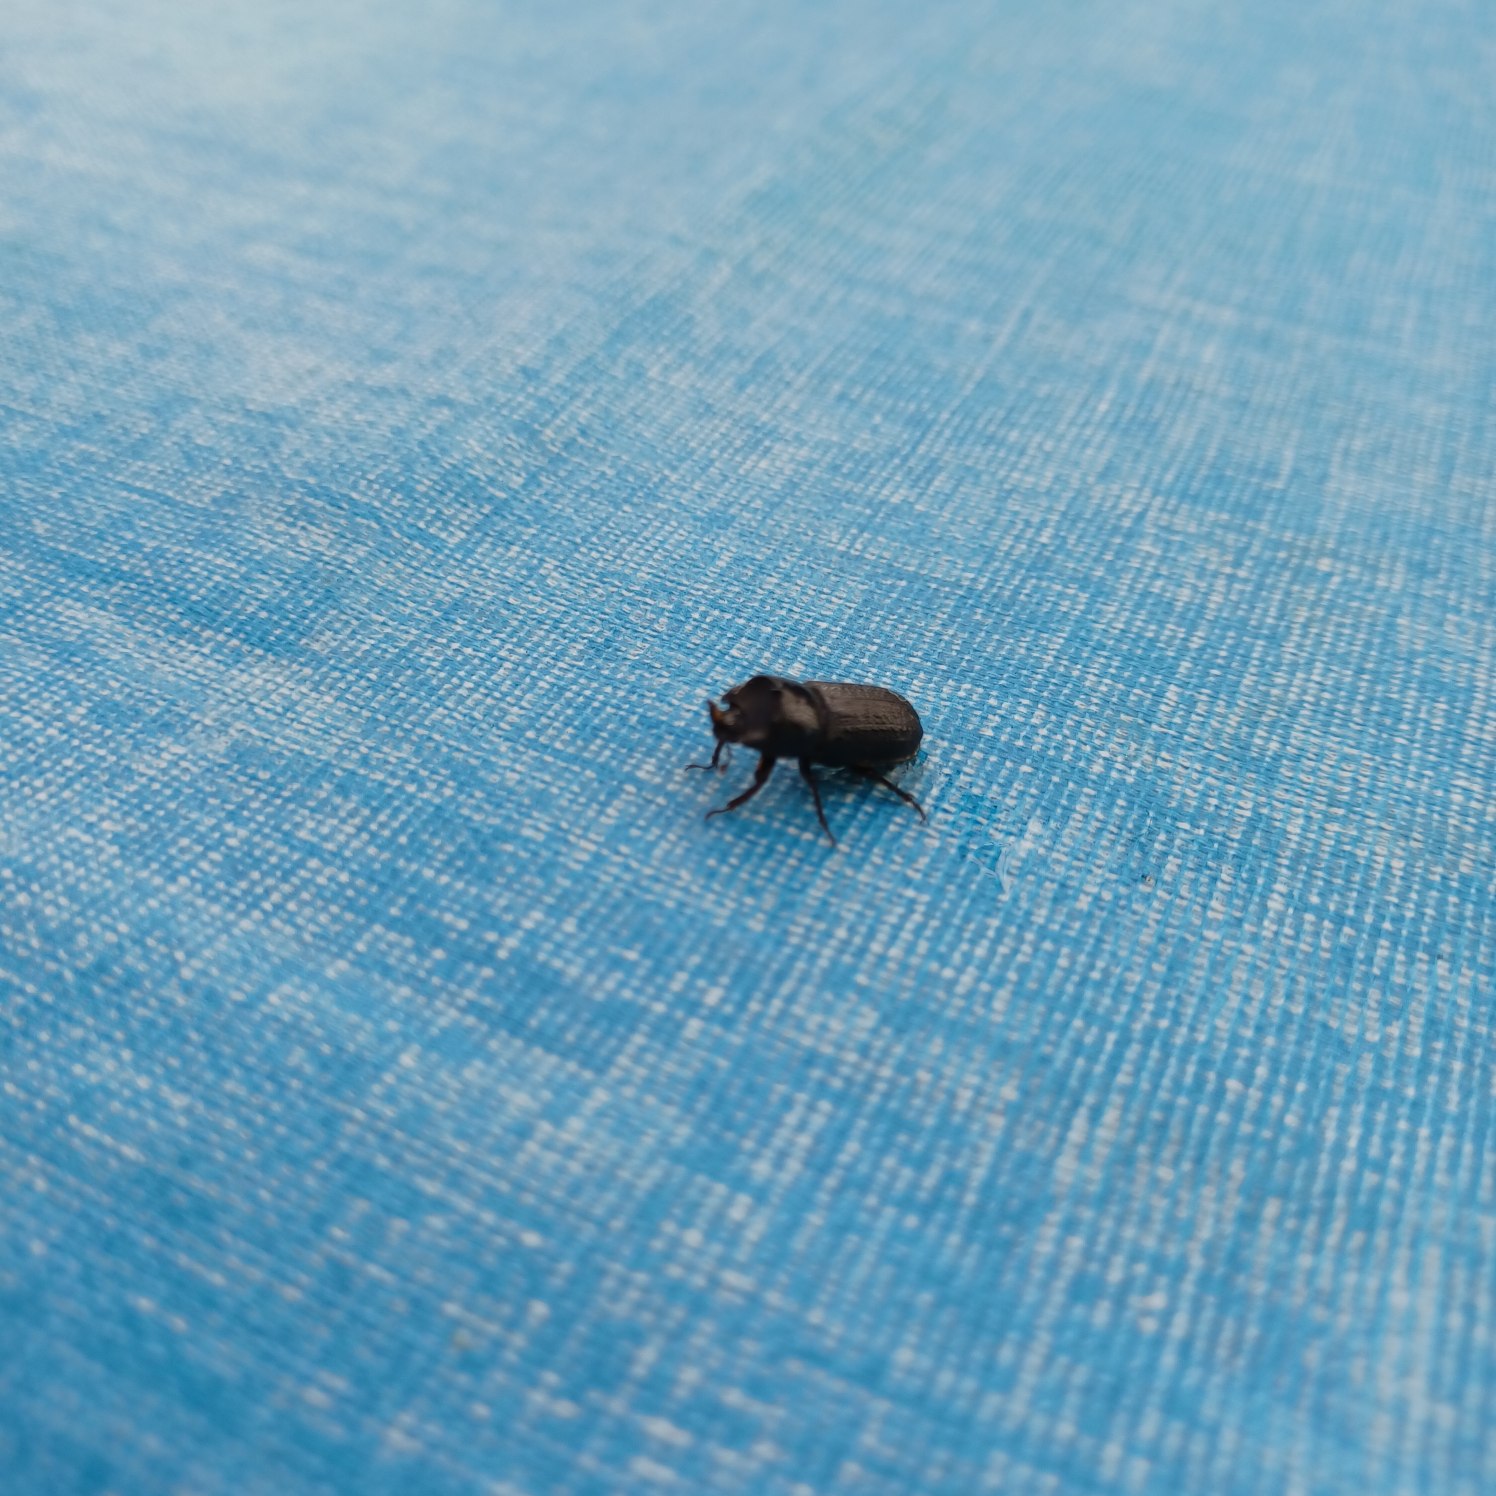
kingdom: Animalia
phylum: Arthropoda
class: Insecta
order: Coleoptera
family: Lucanidae
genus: Sinodendron
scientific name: Sinodendron cylindricum
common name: Valsehjort
